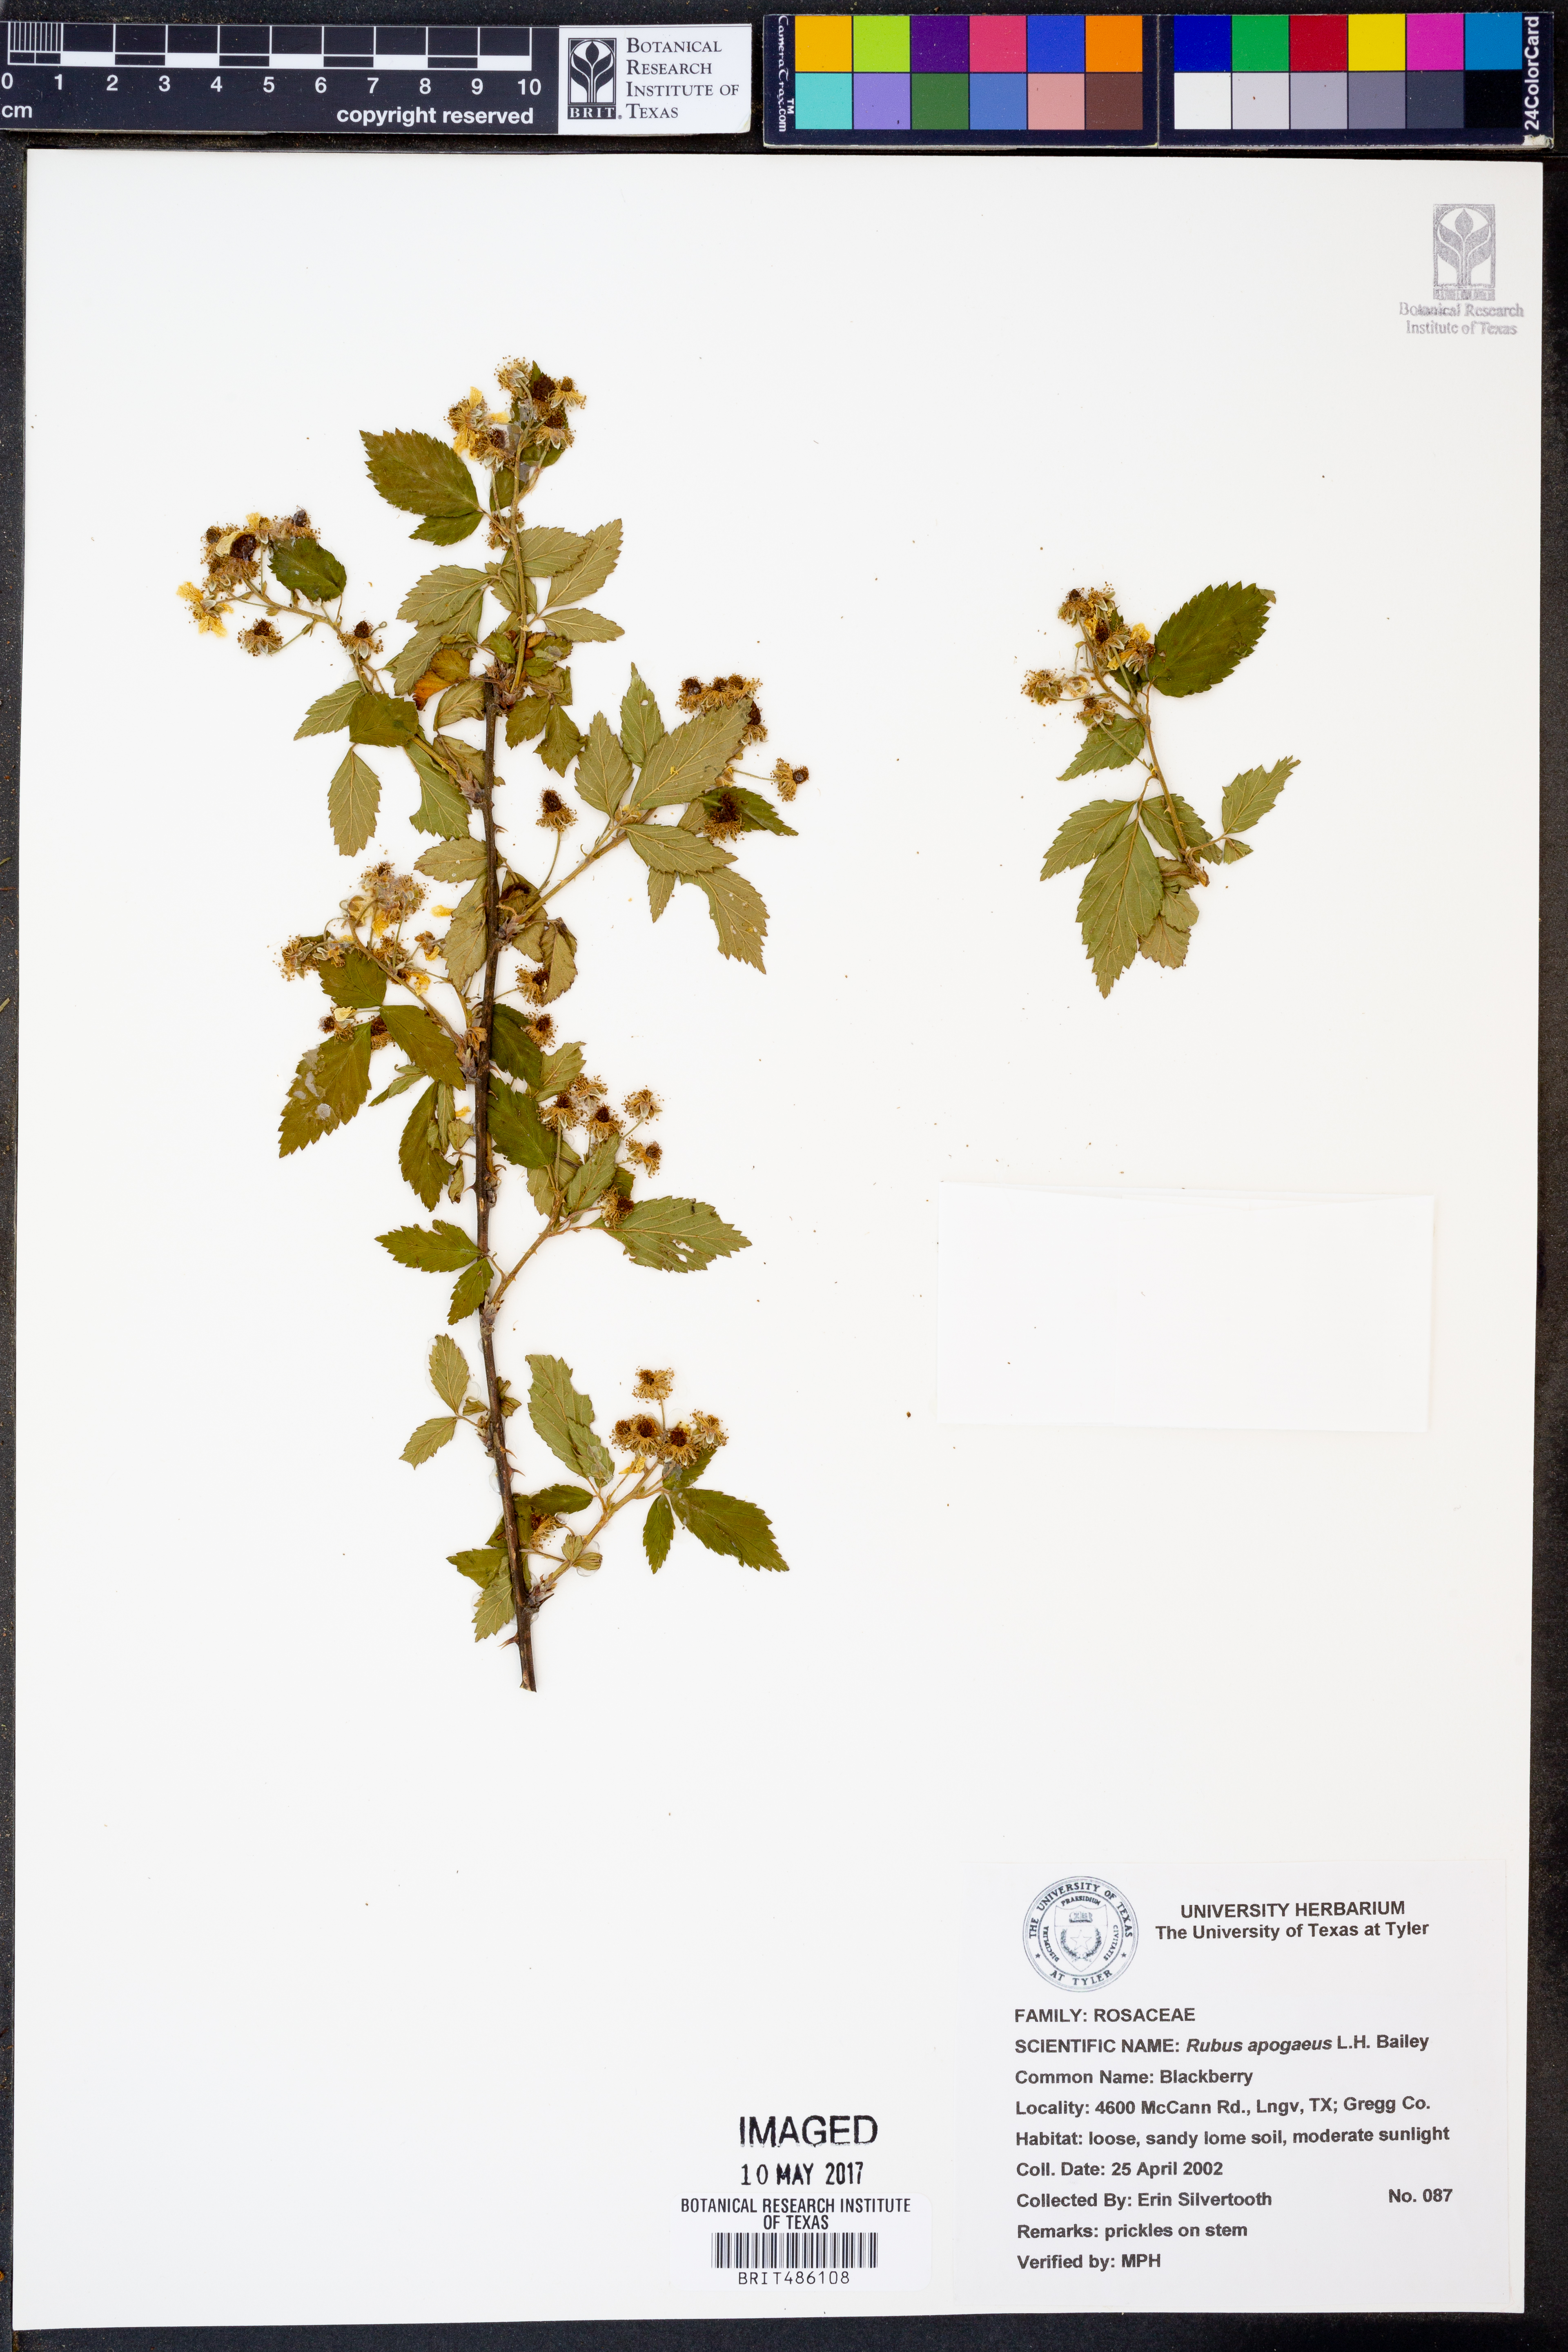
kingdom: Plantae
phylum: Tracheophyta
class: Magnoliopsida
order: Rosales
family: Rosaceae
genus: Rubus
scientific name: Rubus apogaeus
